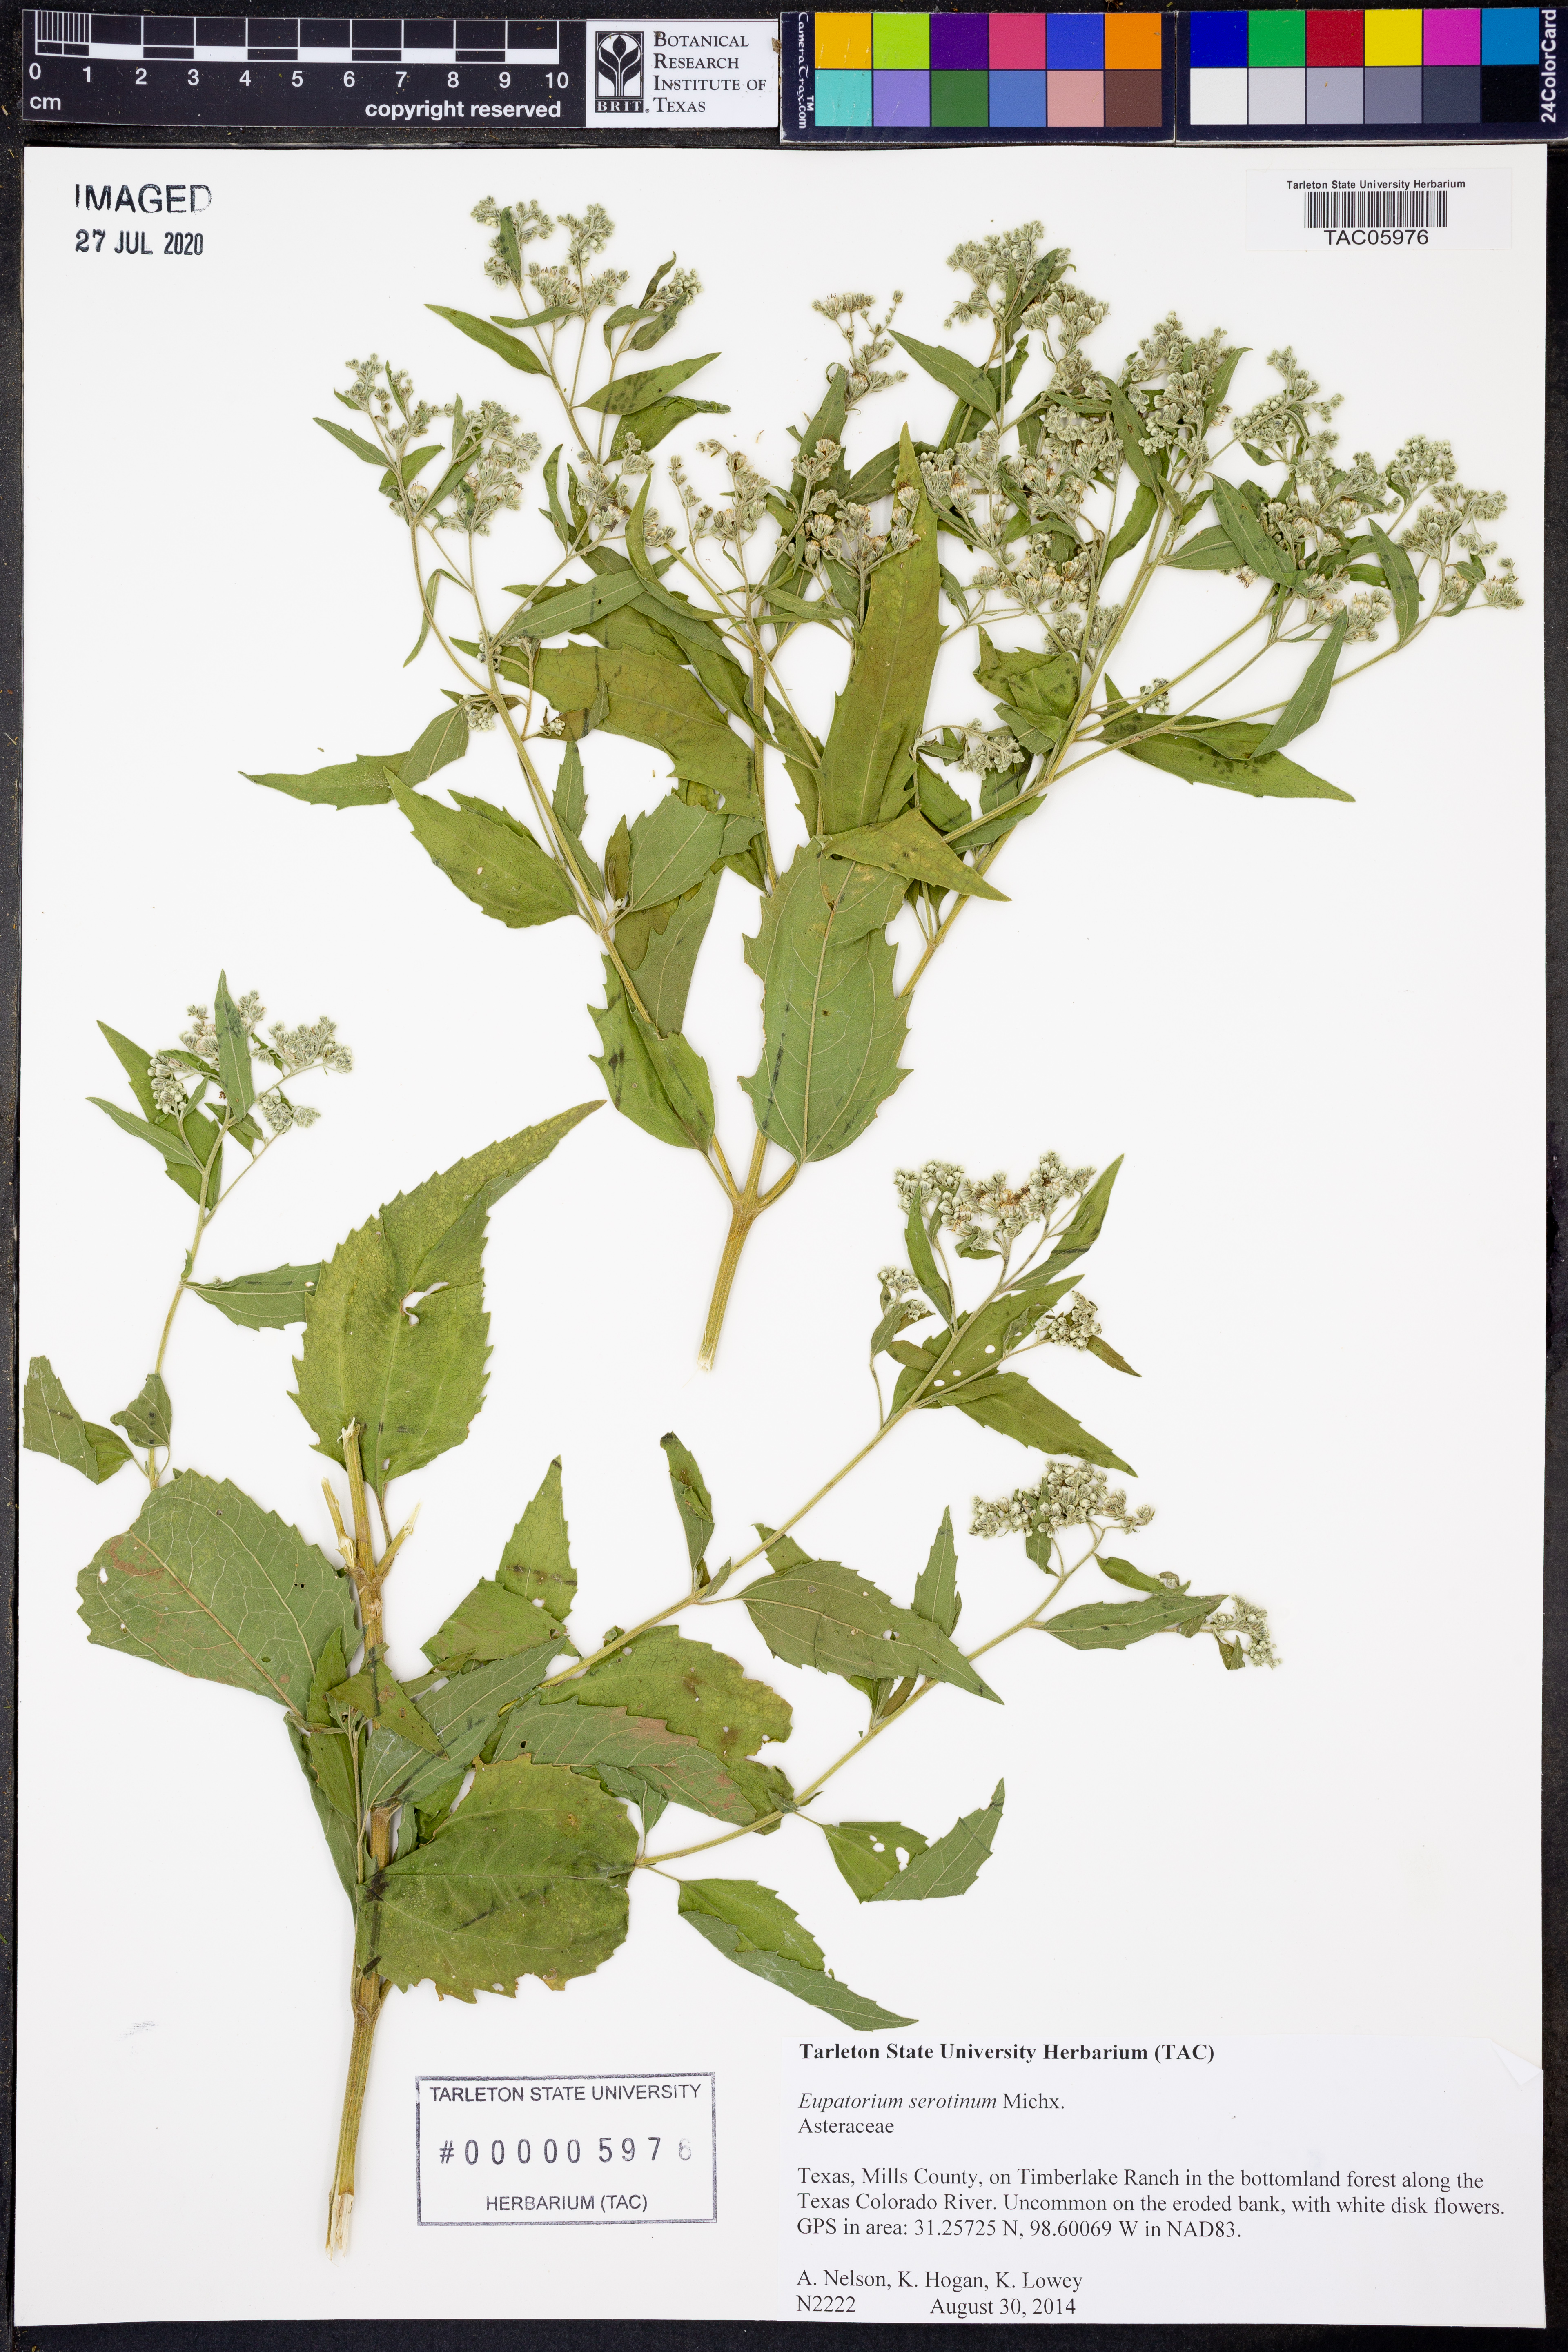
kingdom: Plantae
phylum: Tracheophyta
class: Magnoliopsida
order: Asterales
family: Asteraceae
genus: Eupatorium
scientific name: Eupatorium serotinum
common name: Late boneset
